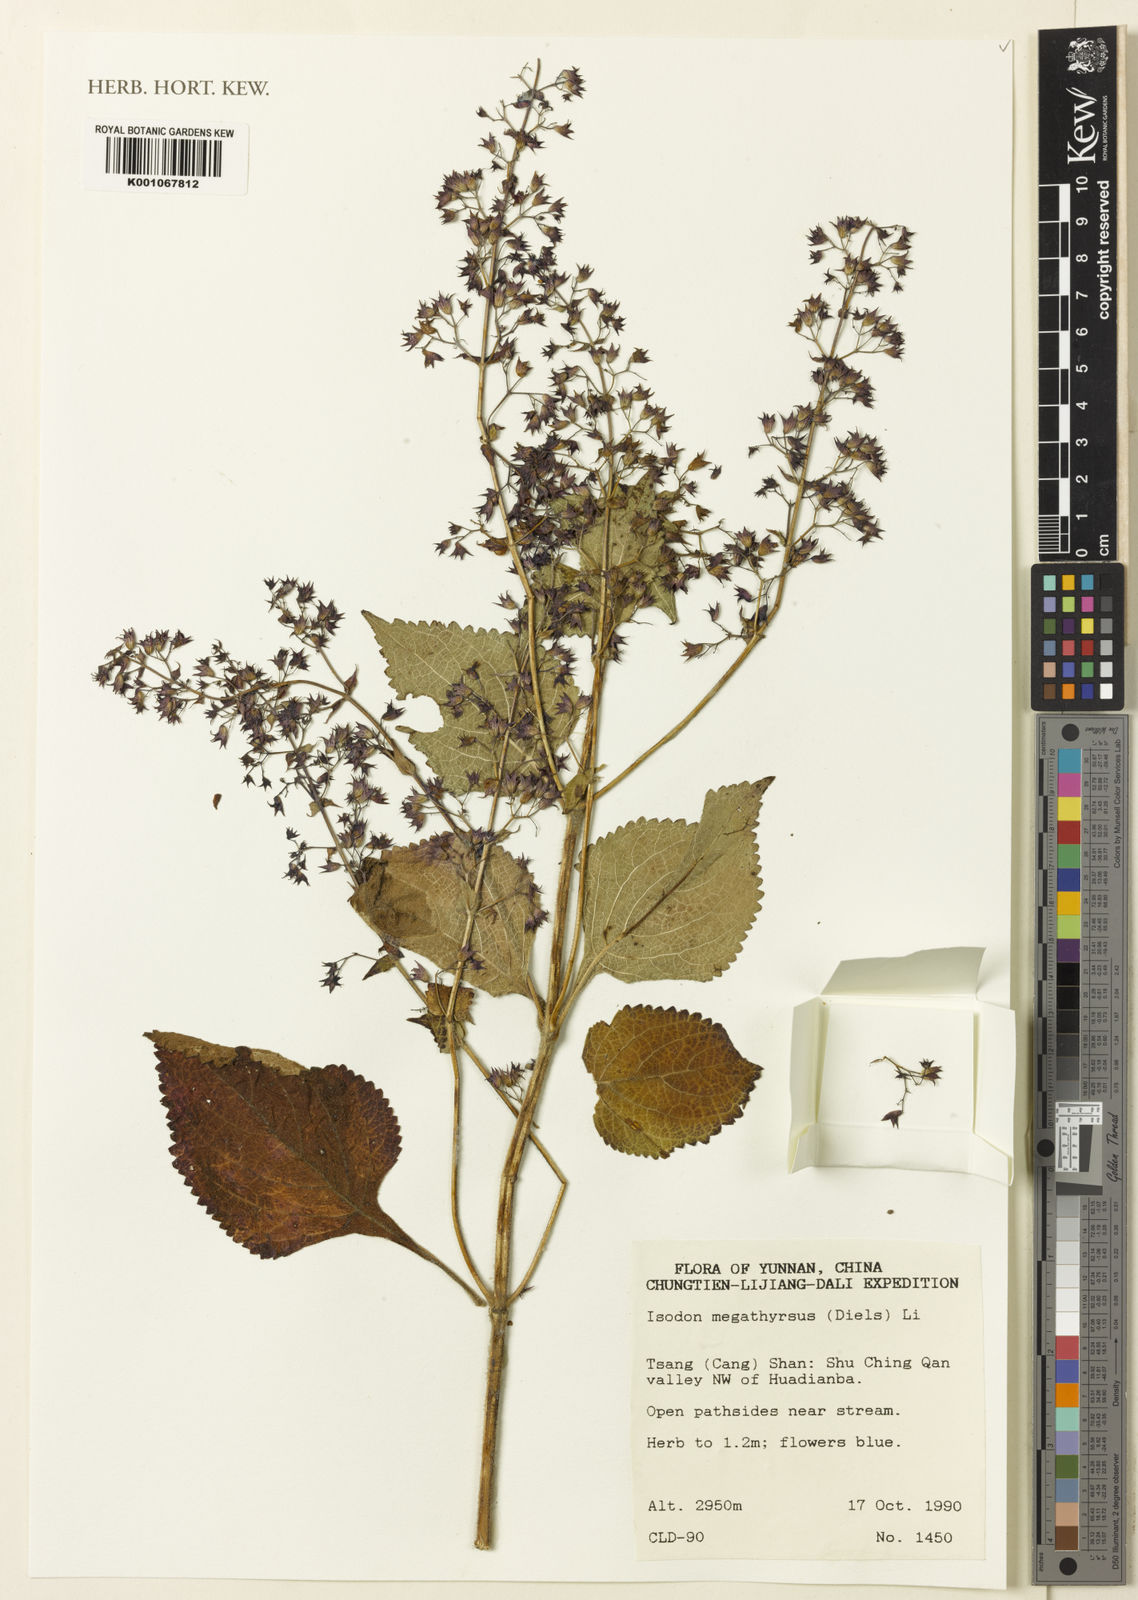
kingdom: Plantae
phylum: Tracheophyta
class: Magnoliopsida
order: Lamiales
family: Lamiaceae
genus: Isodon
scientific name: Isodon
